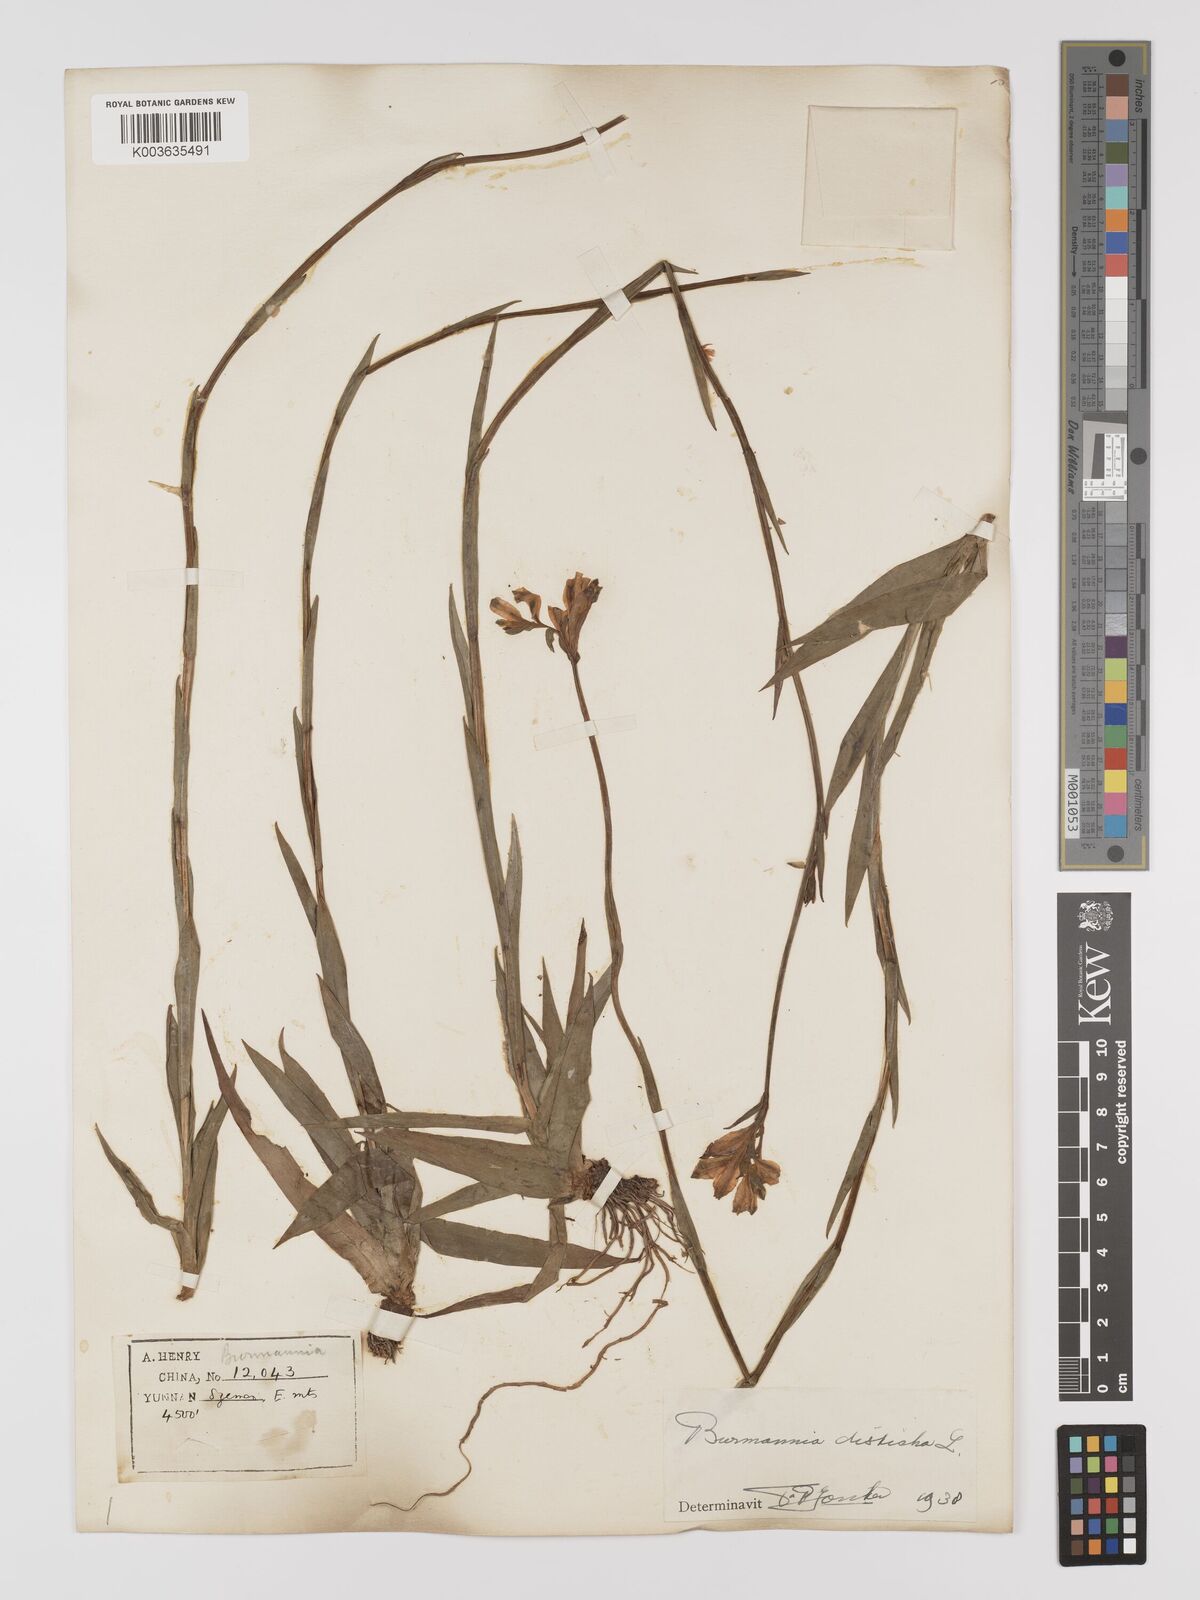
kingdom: Plantae
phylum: Tracheophyta
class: Liliopsida
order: Dioscoreales
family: Burmanniaceae
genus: Burmannia
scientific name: Burmannia disticha
